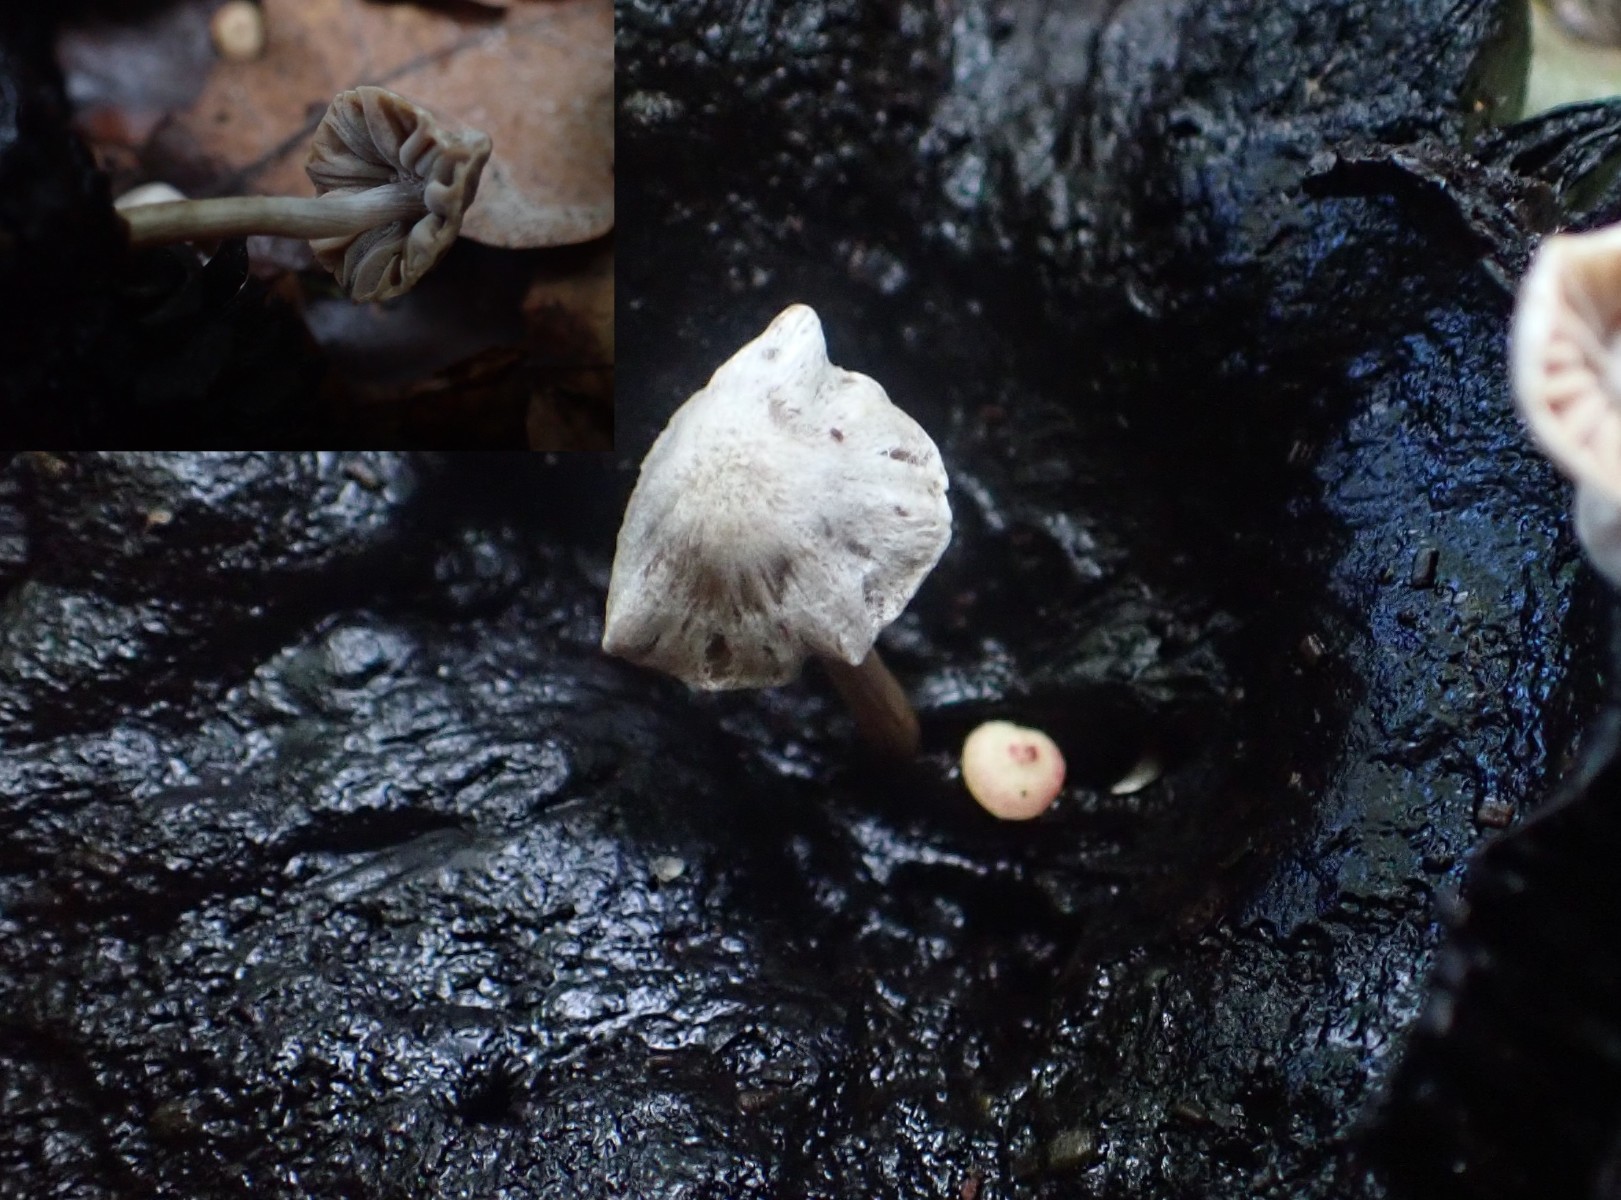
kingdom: Fungi
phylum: Basidiomycota
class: Agaricomycetes
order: Agaricales
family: Lyophyllaceae
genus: Asterophora
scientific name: Asterophora parasitica
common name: grå snyltehat
